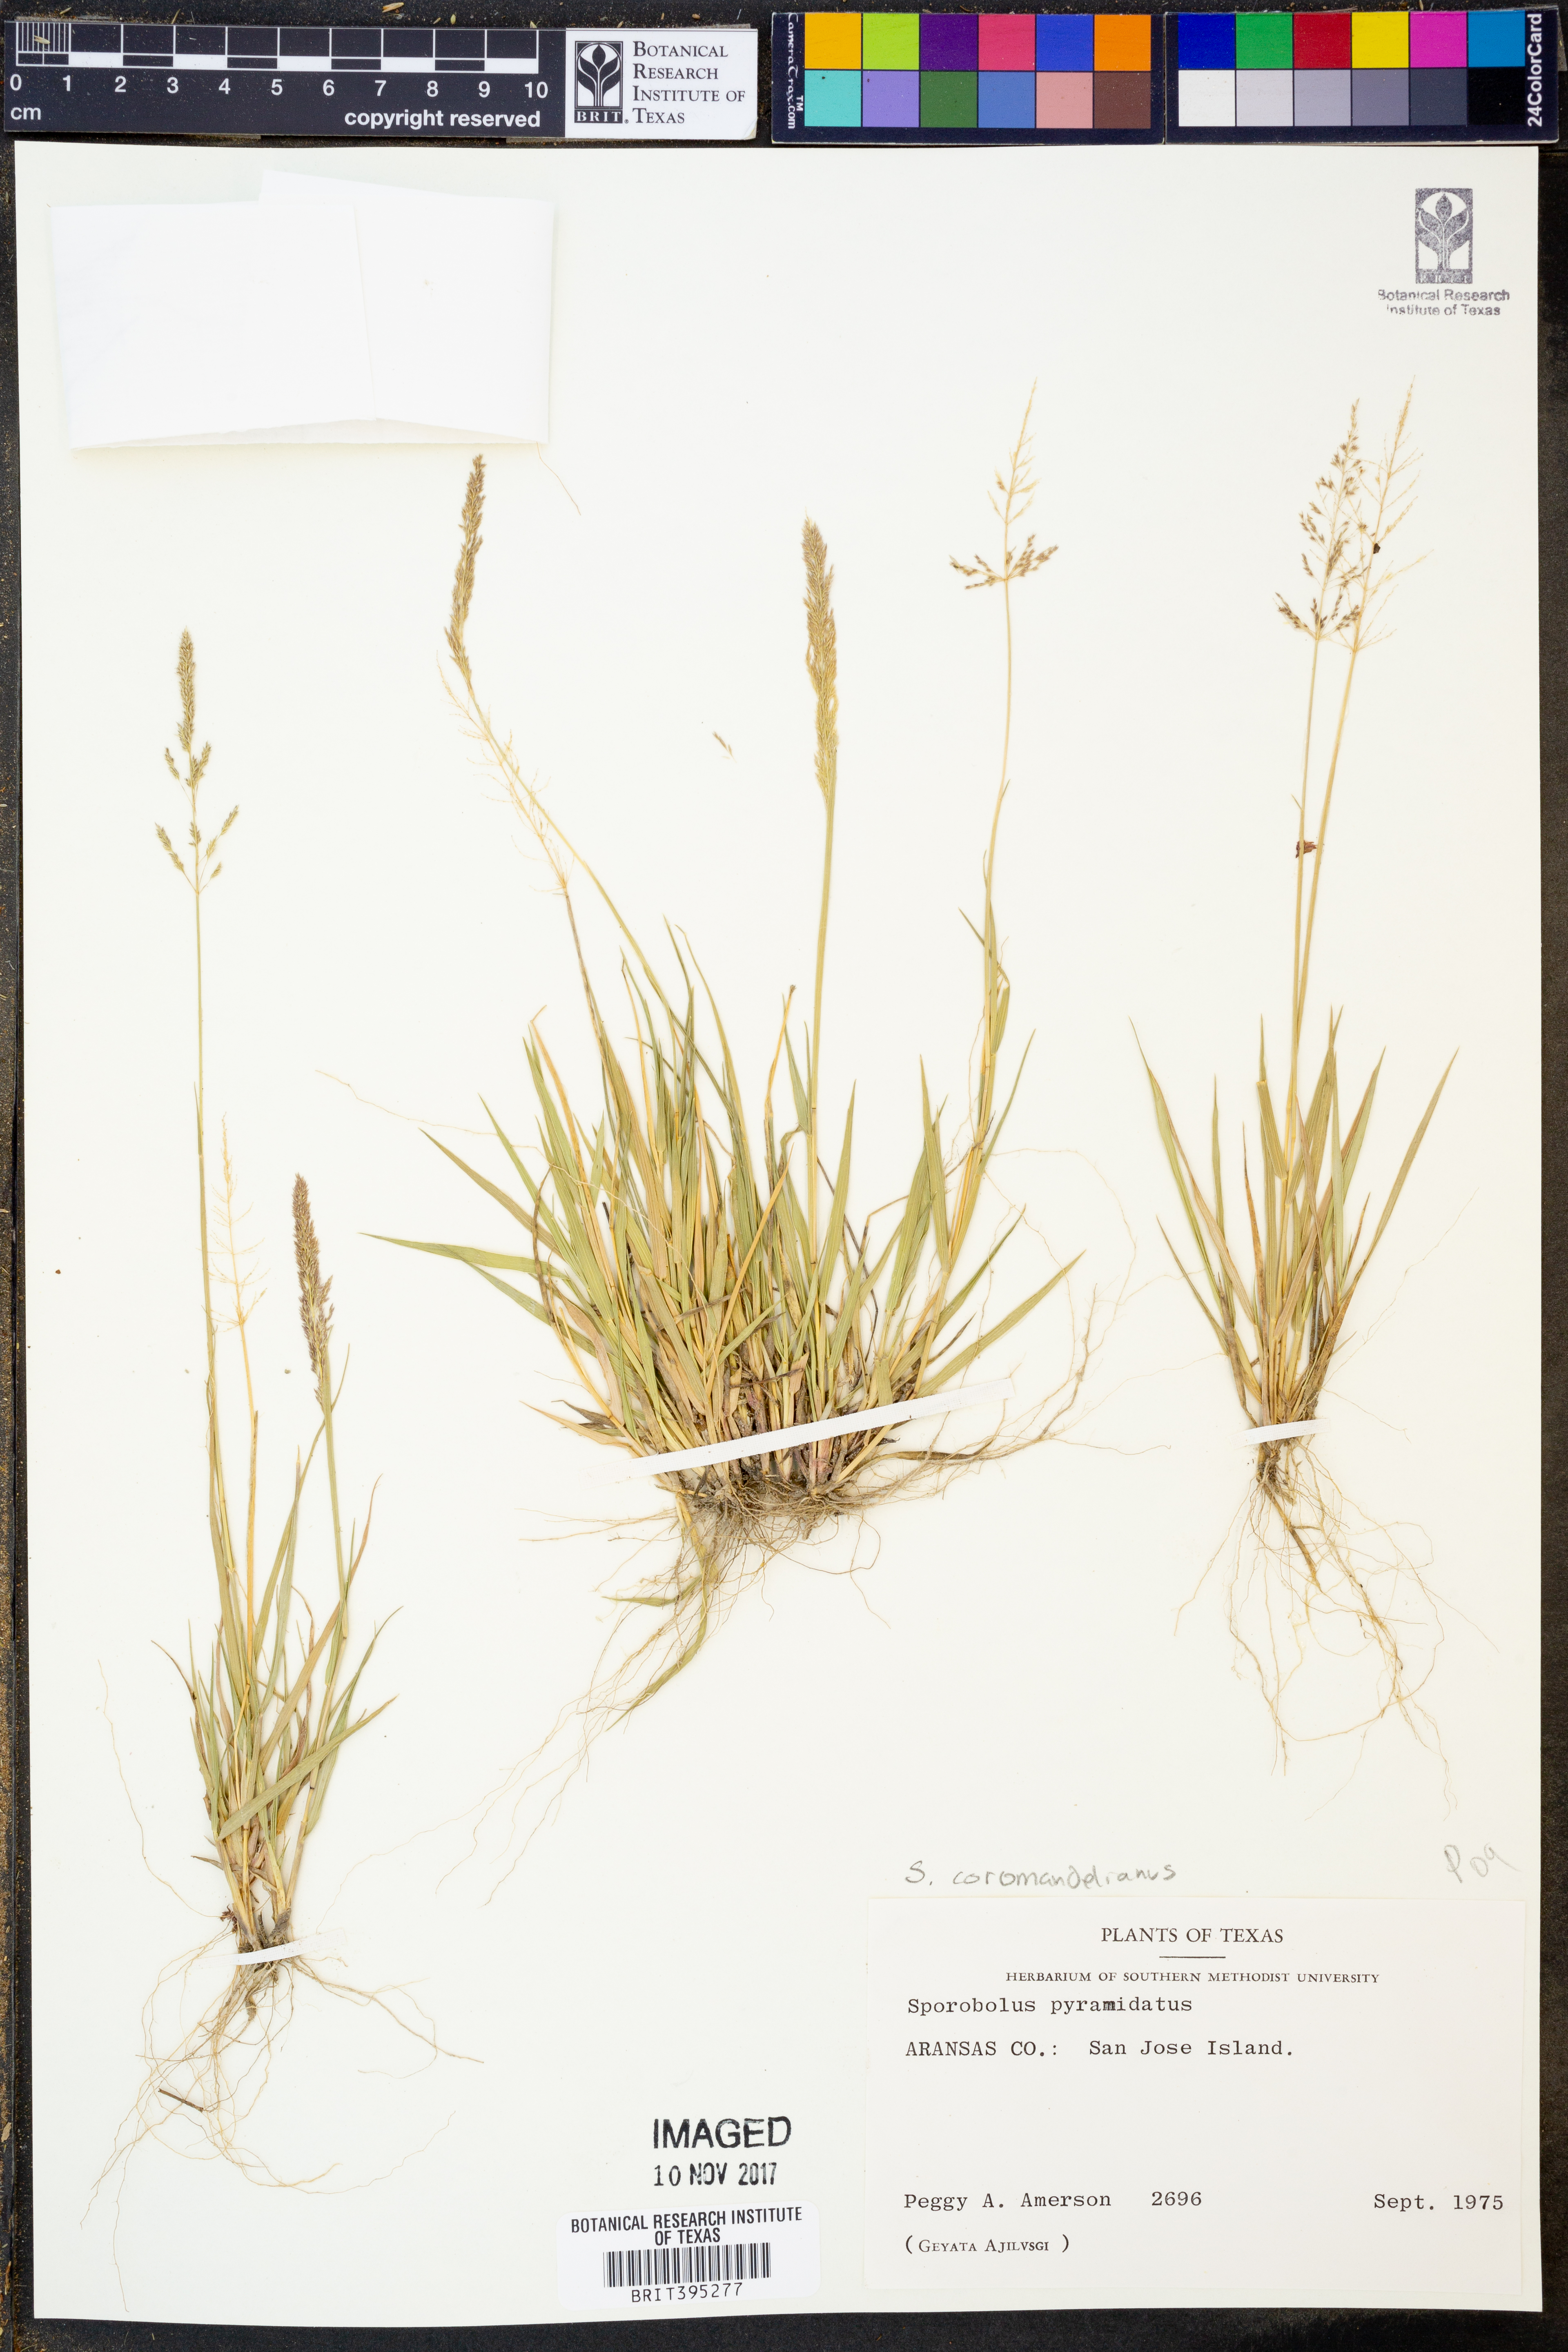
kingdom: Plantae
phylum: Tracheophyta
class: Liliopsida
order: Poales
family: Poaceae
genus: Sporobolus
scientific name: Sporobolus coromandelianus
